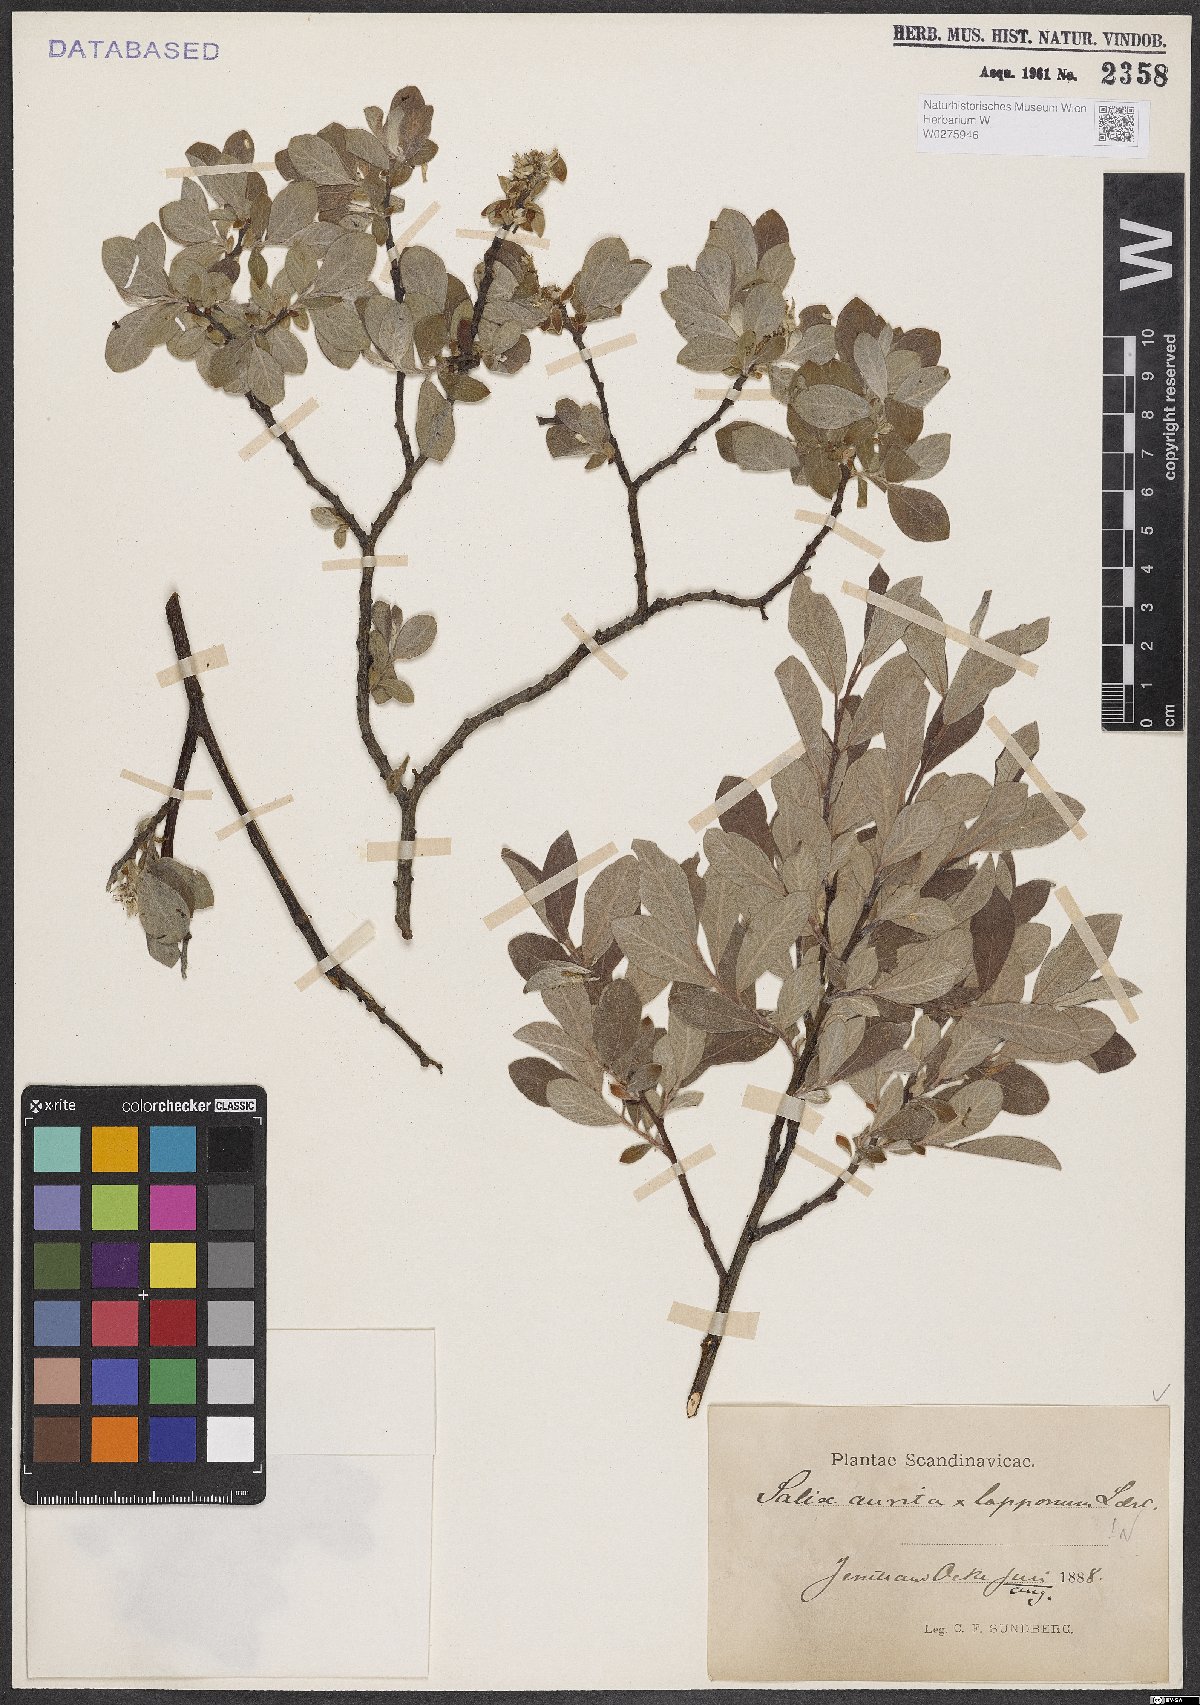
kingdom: Plantae
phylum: Tracheophyta
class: Magnoliopsida
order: Malpighiales
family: Salicaceae
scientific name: Salicaceae
